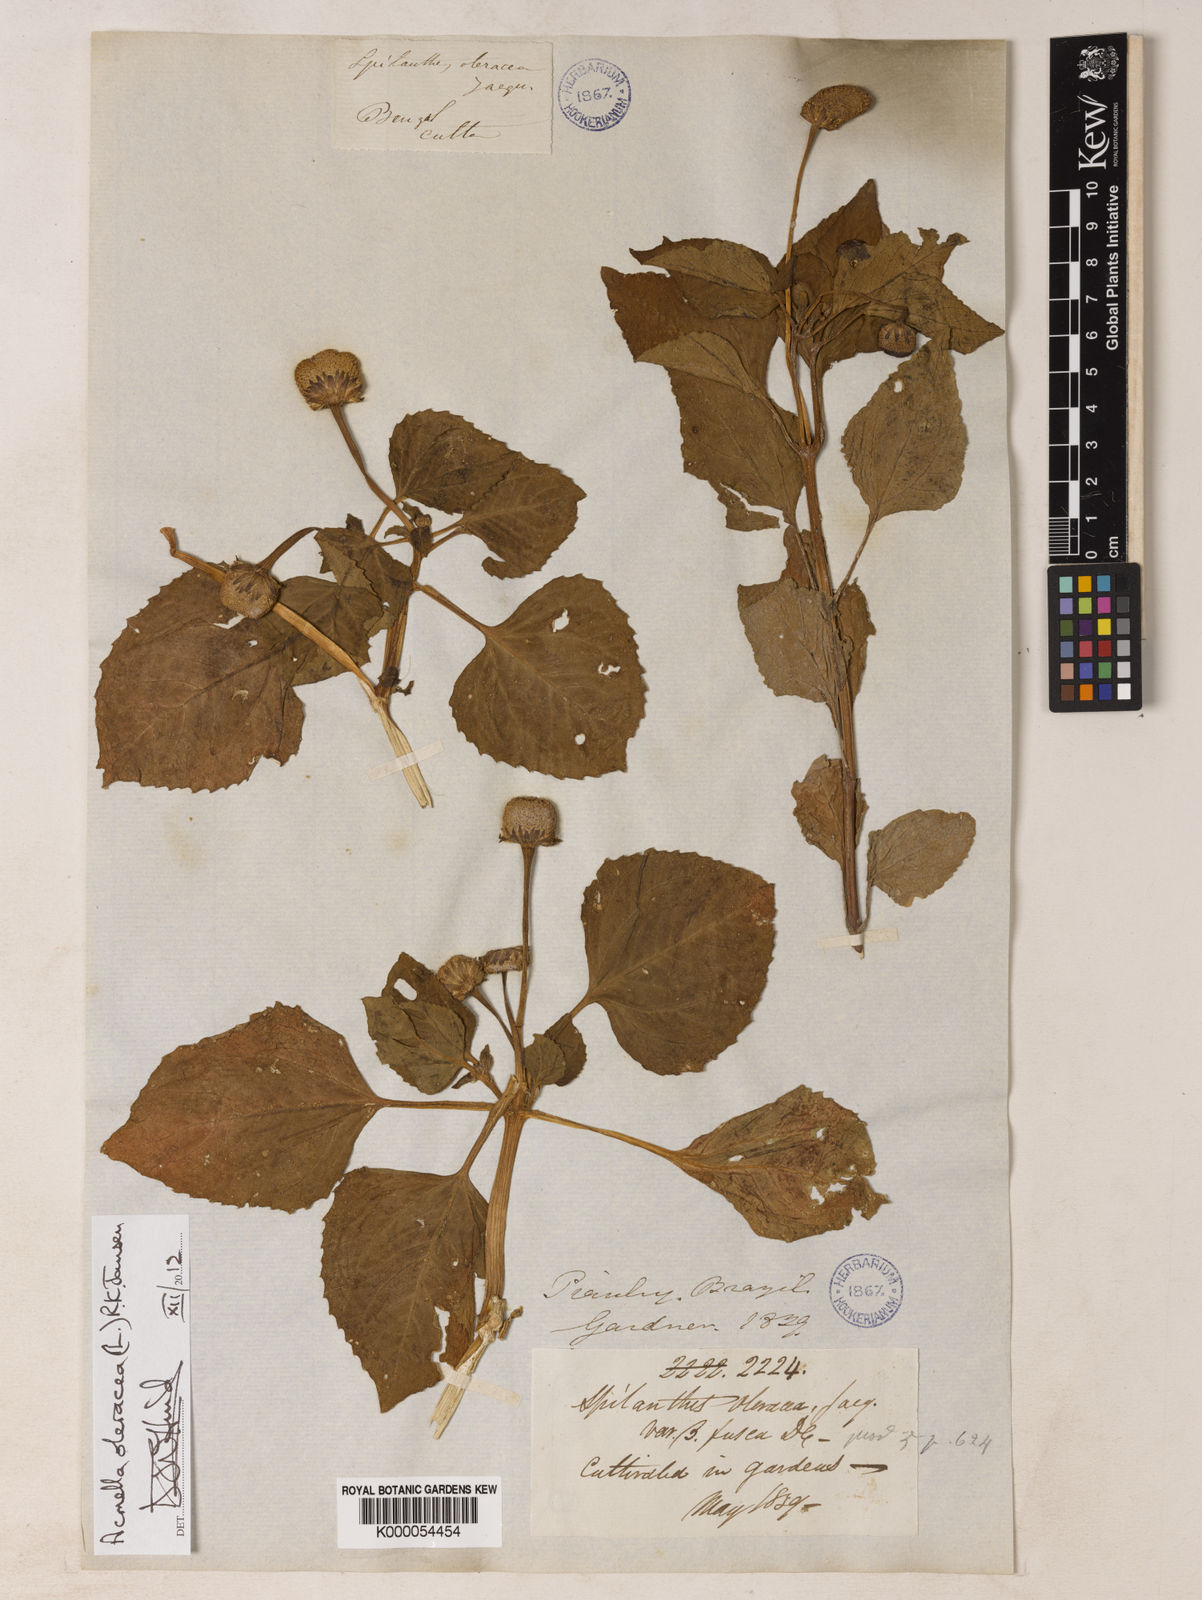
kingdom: Plantae
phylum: Tracheophyta
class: Magnoliopsida
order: Asterales
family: Asteraceae
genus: Acmella
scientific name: Acmella oleracea
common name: Brazilian cress
